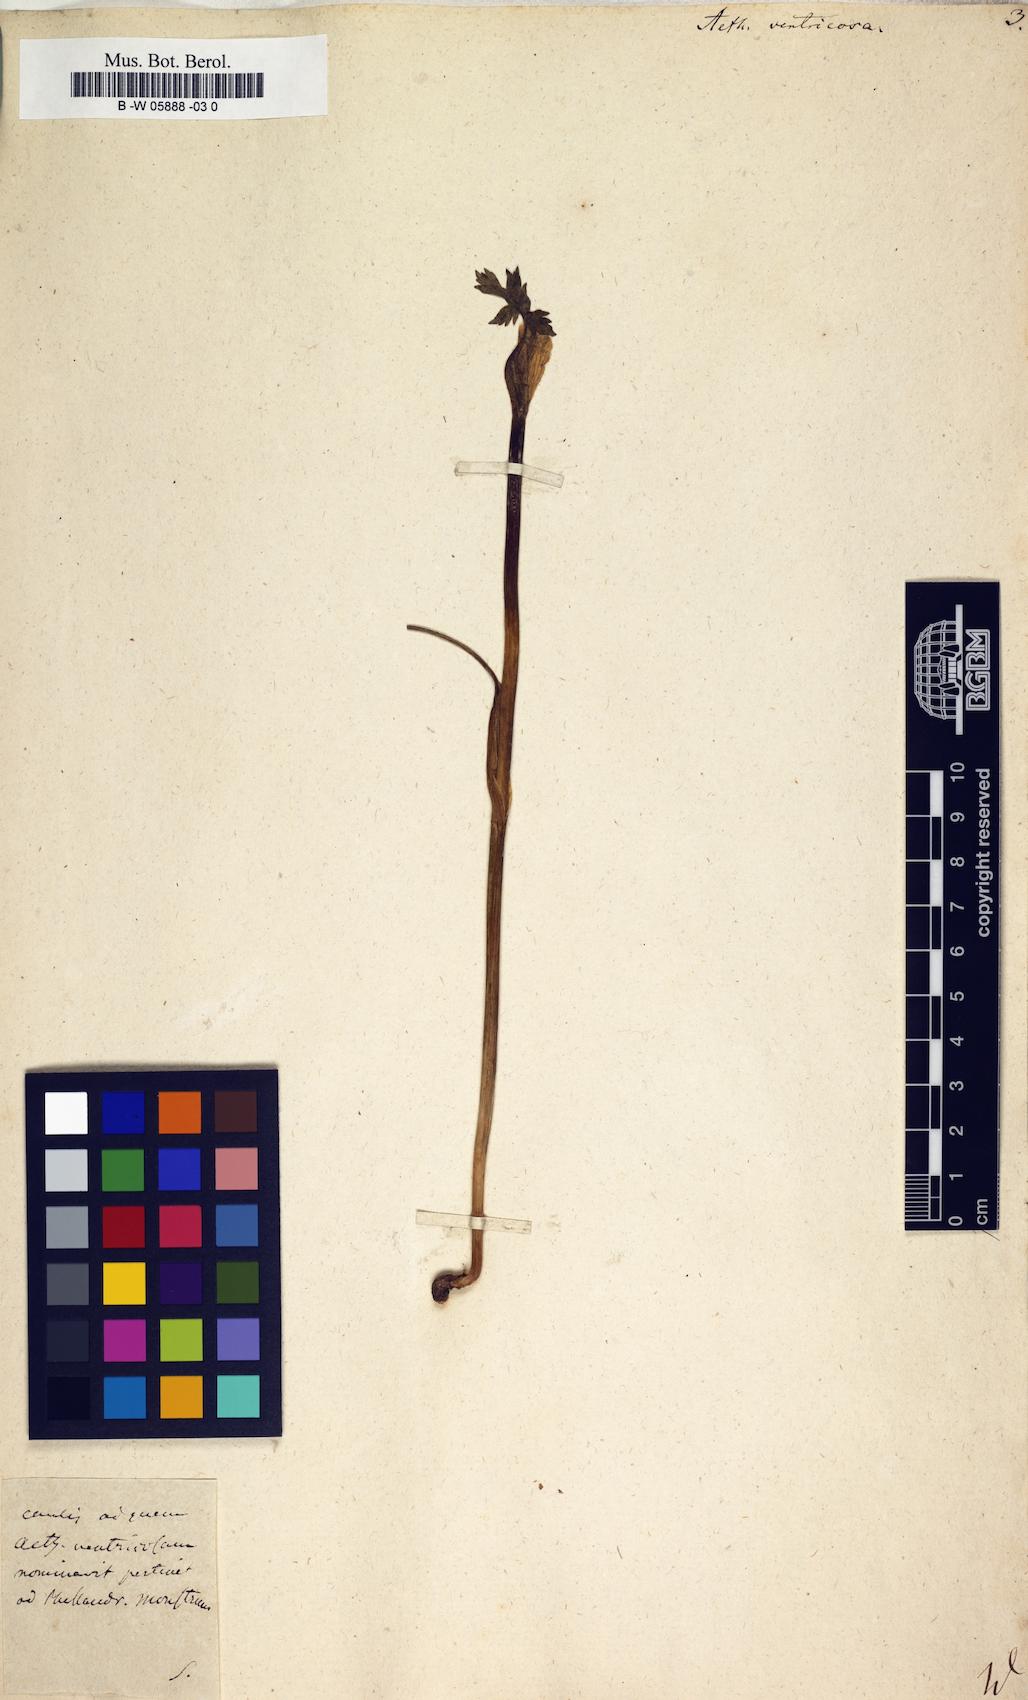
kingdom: Plantae
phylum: Tracheophyta
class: Magnoliopsida
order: Apiales
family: Apiaceae
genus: Aethusa
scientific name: Aethusa
